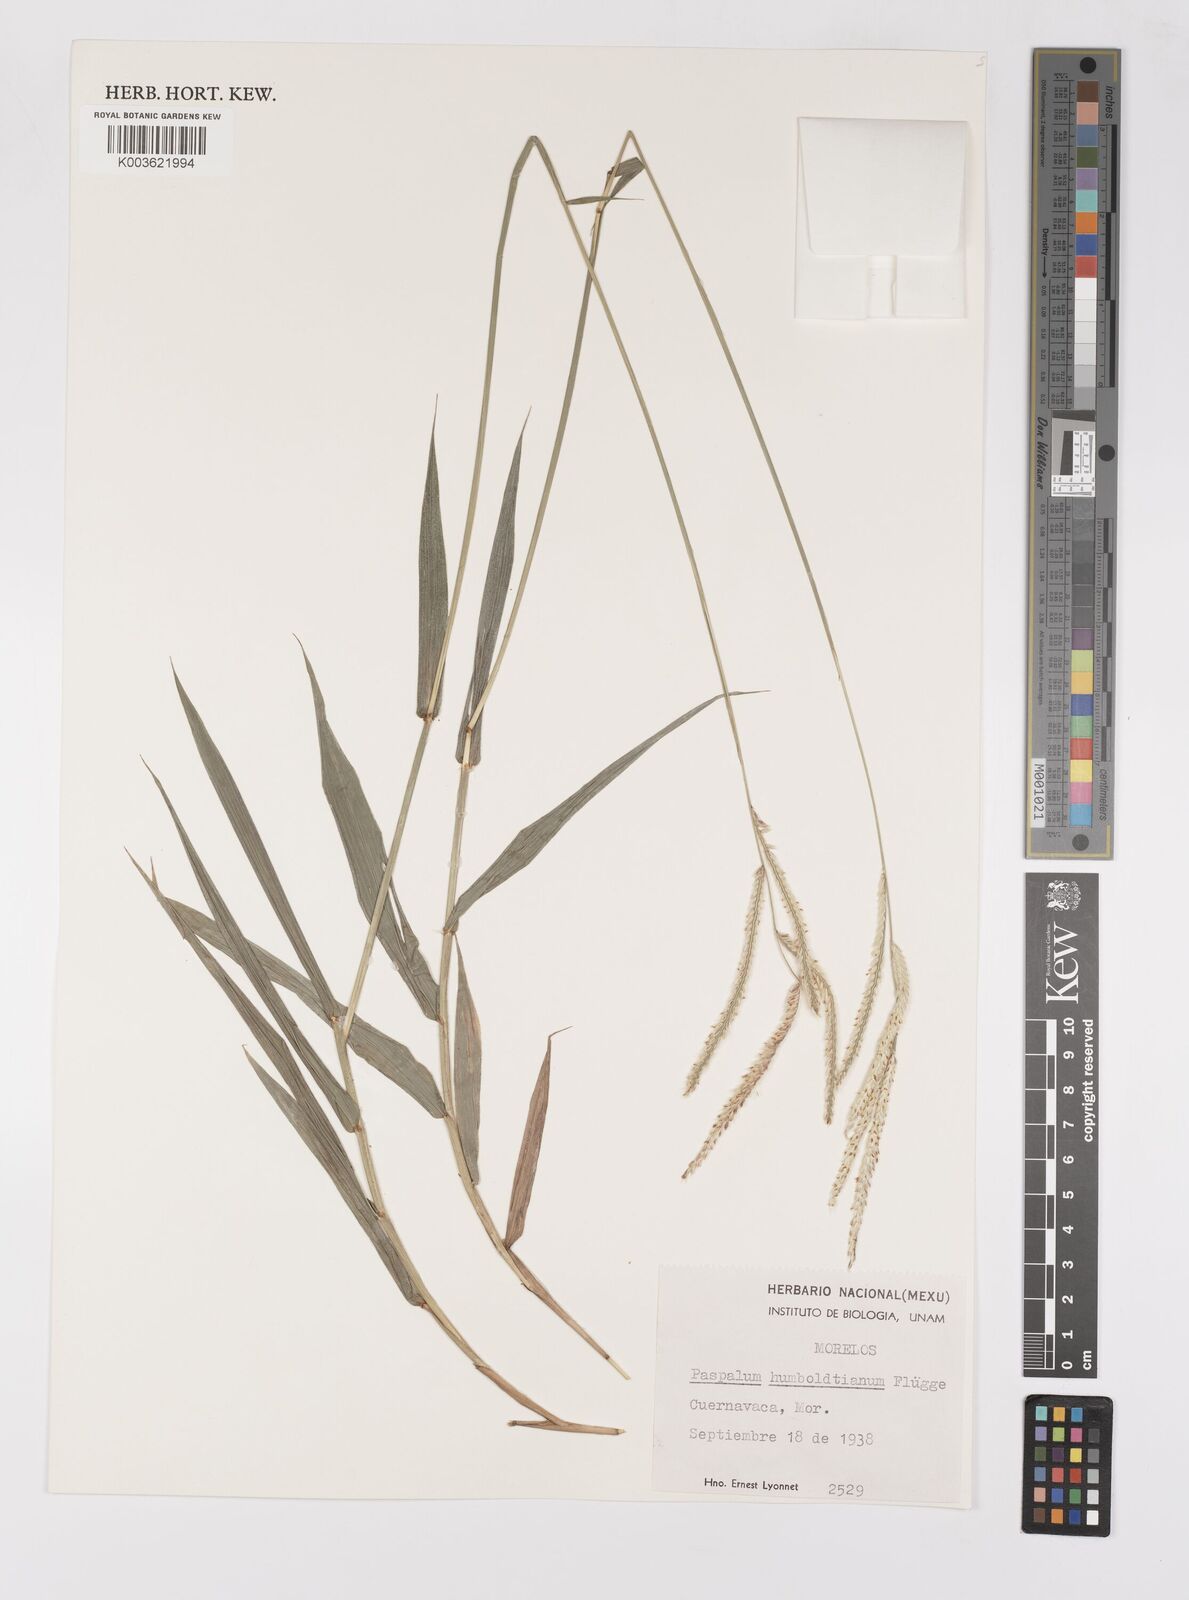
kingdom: Plantae
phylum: Tracheophyta
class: Liliopsida
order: Poales
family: Poaceae
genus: Paspalum
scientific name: Paspalum humboldtianum
